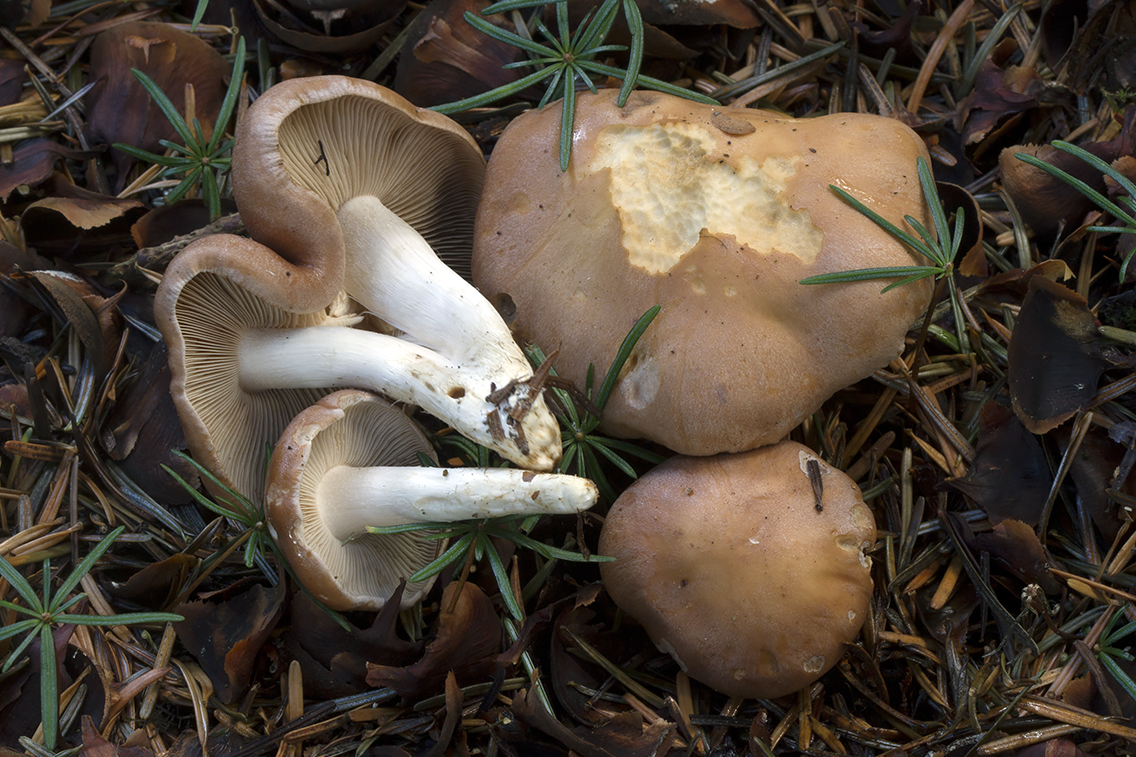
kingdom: Fungi
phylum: Basidiomycota
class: Agaricomycetes
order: Agaricales
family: Hymenogastraceae
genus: Hebeloma
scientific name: Hebeloma theobrominum
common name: rødbrun tåreblad
